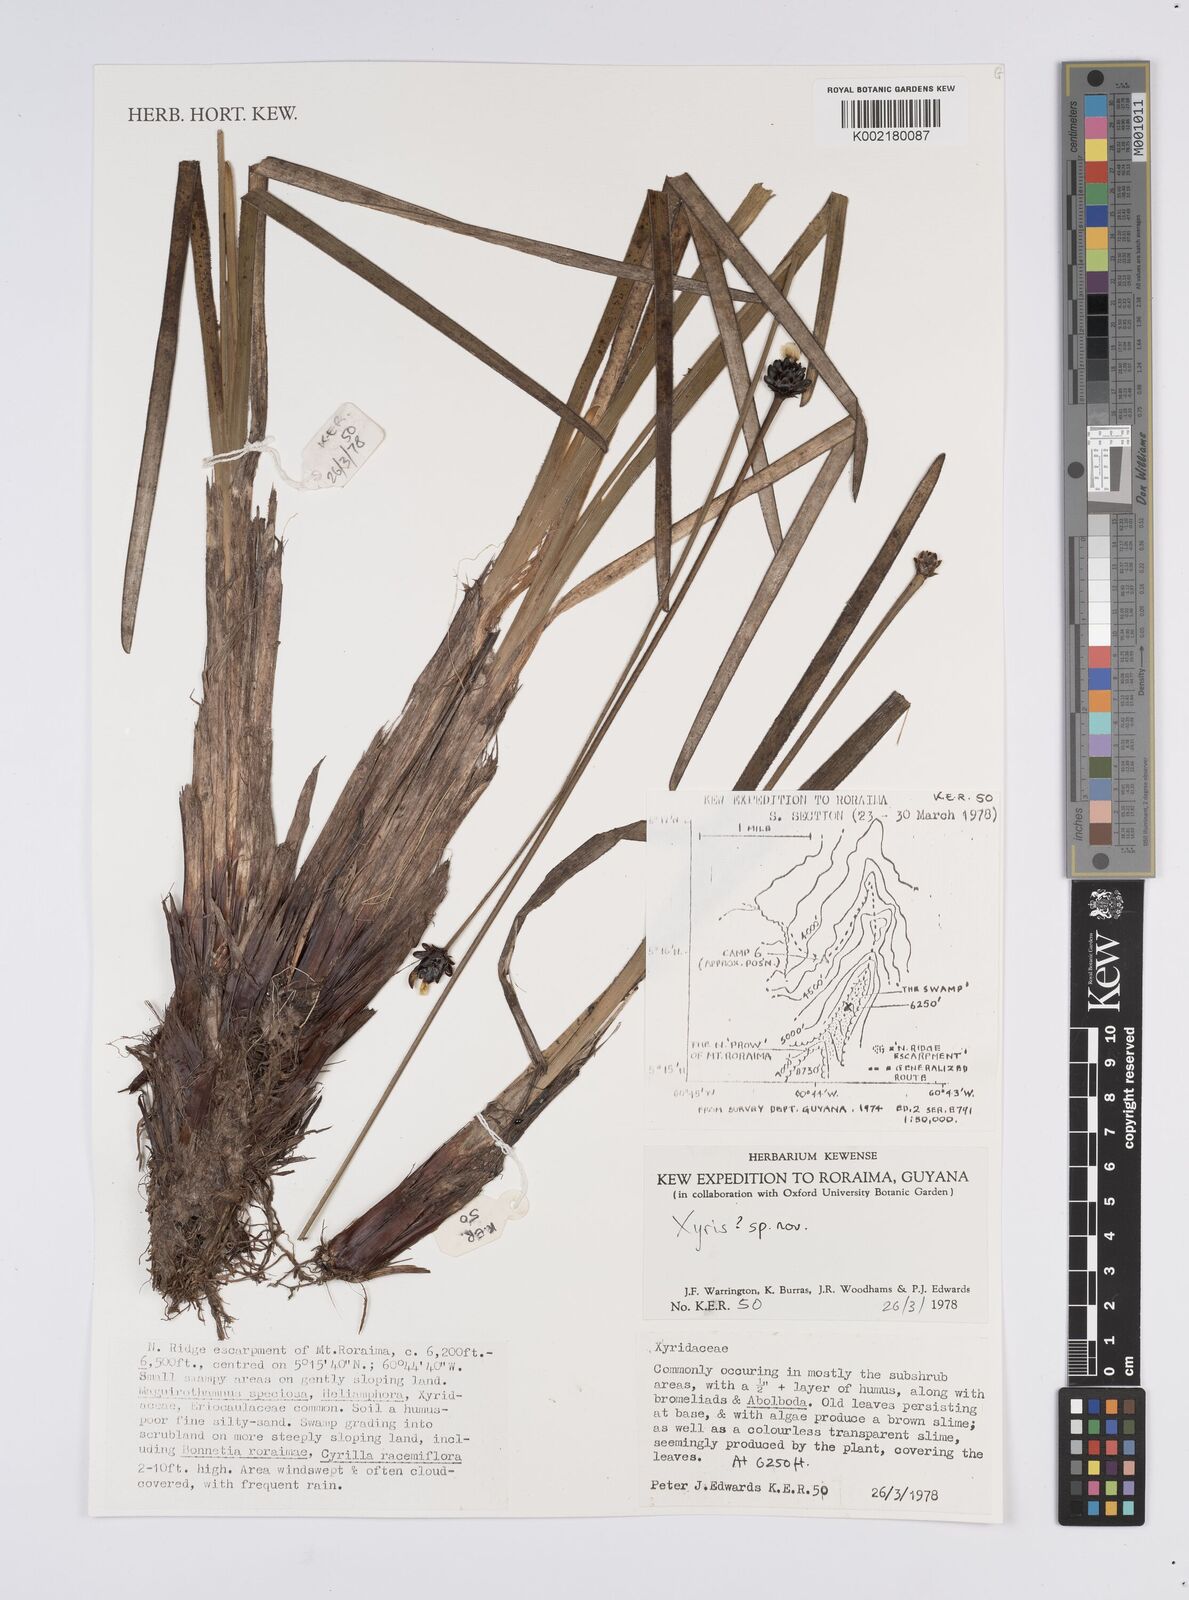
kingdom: Plantae
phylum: Tracheophyta
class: Liliopsida
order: Poales
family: Xyridaceae
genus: Xyris
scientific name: Xyris
